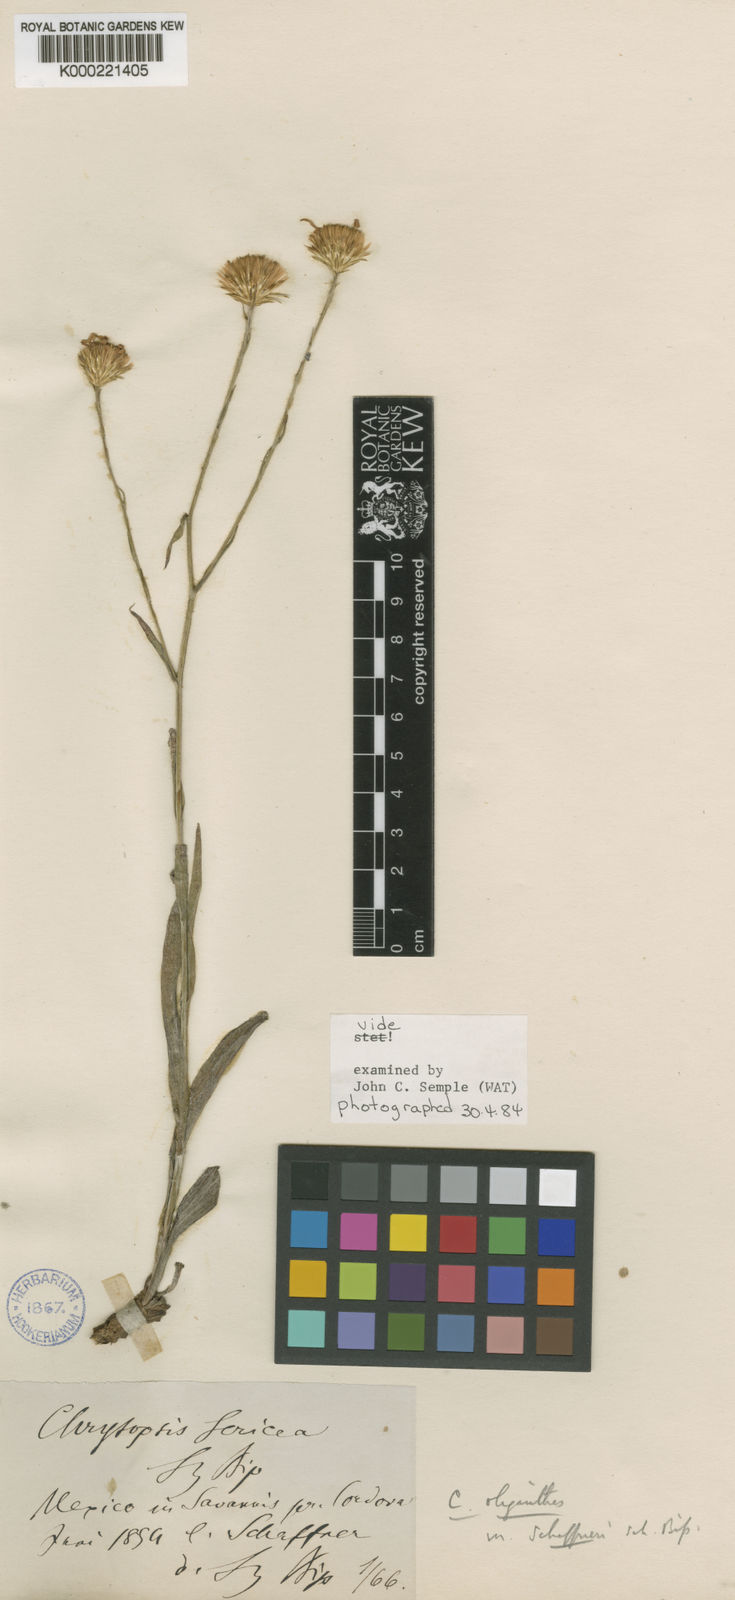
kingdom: Plantae
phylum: Tracheophyta
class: Magnoliopsida
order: Asterales
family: Asteraceae
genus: Heterotheca
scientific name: Heterotheca
